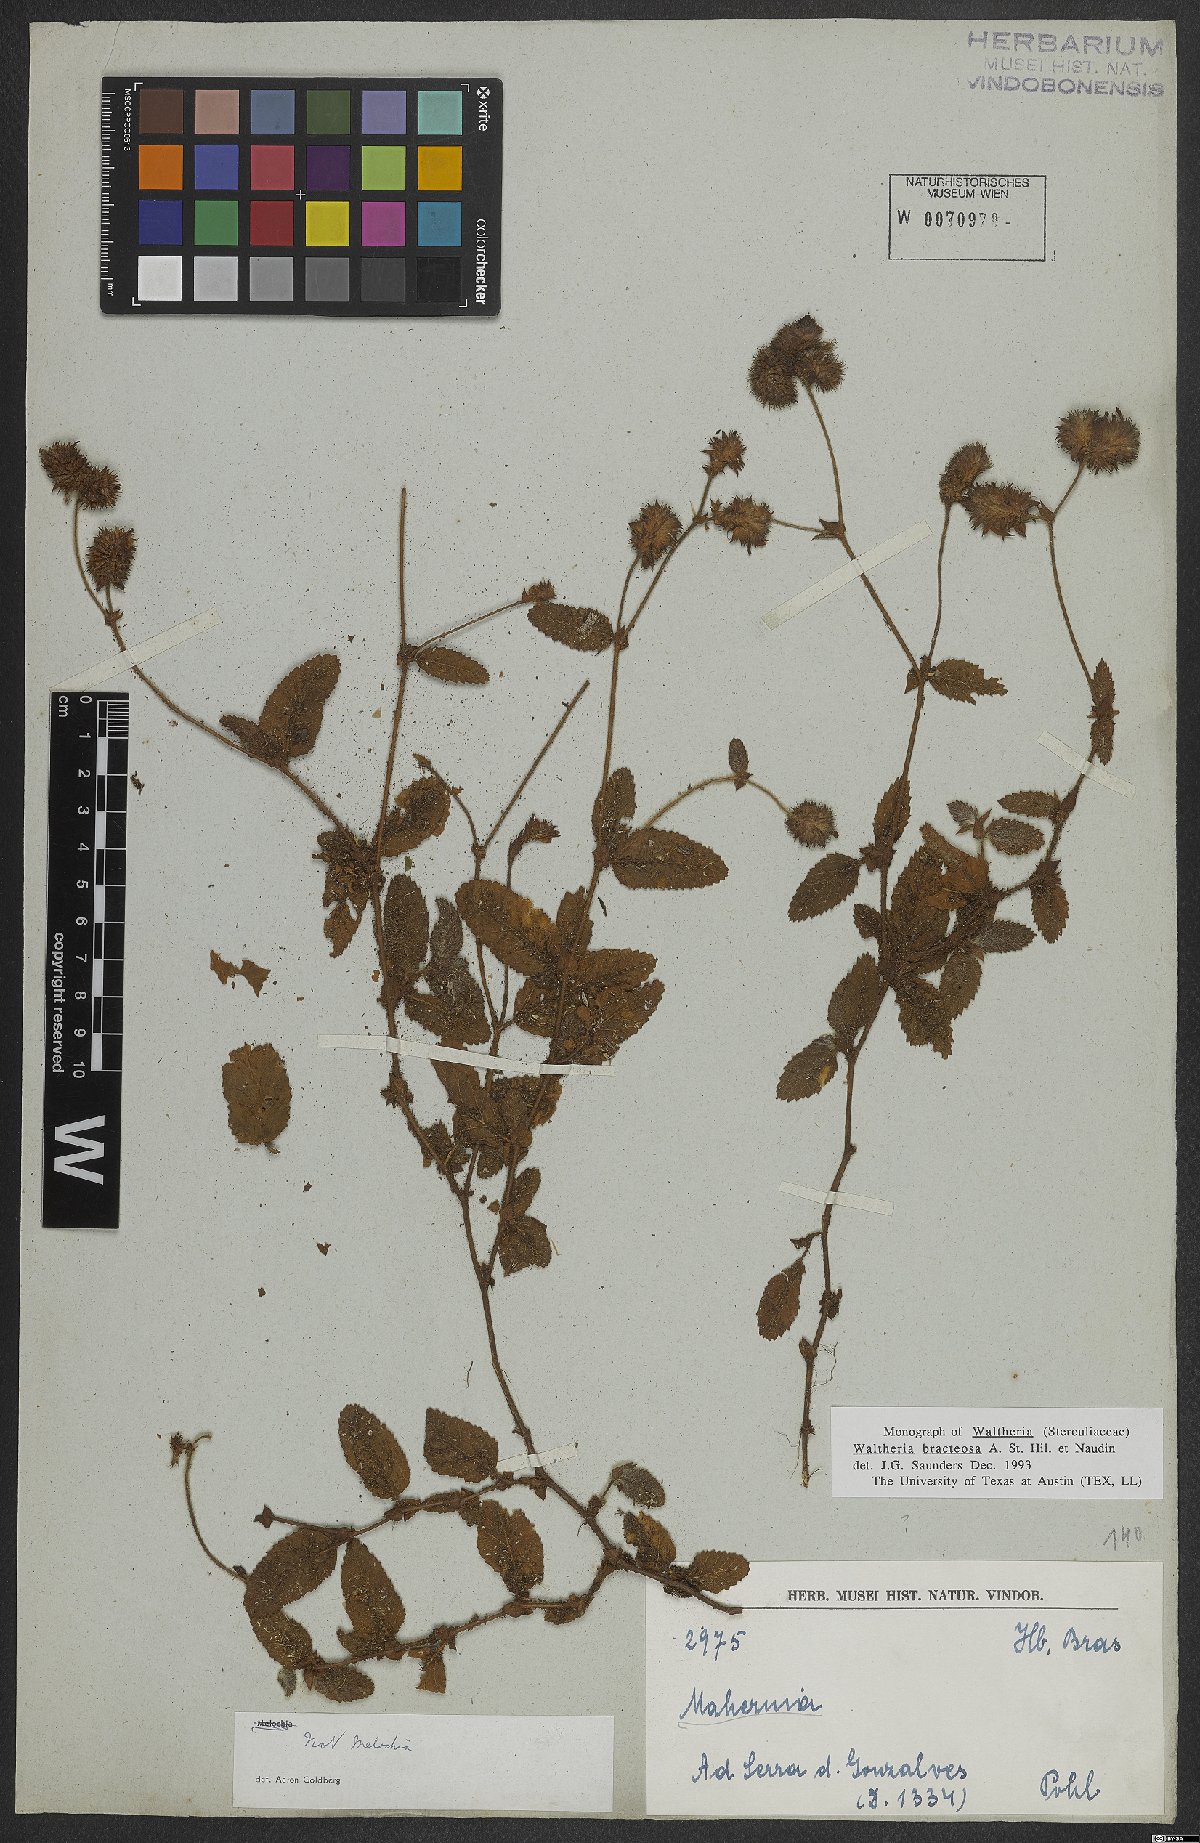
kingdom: Plantae
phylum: Tracheophyta
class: Magnoliopsida
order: Malvales
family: Malvaceae
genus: Waltheria
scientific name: Waltheria bracteosa
